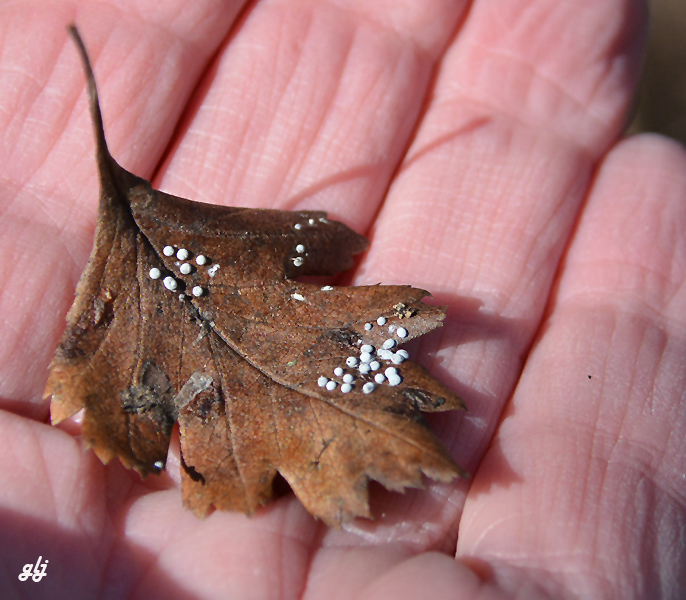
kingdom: Protozoa
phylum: Mycetozoa
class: Myxomycetes
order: Physarales
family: Didymiaceae
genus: Didymium
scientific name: Didymium squamulosum
